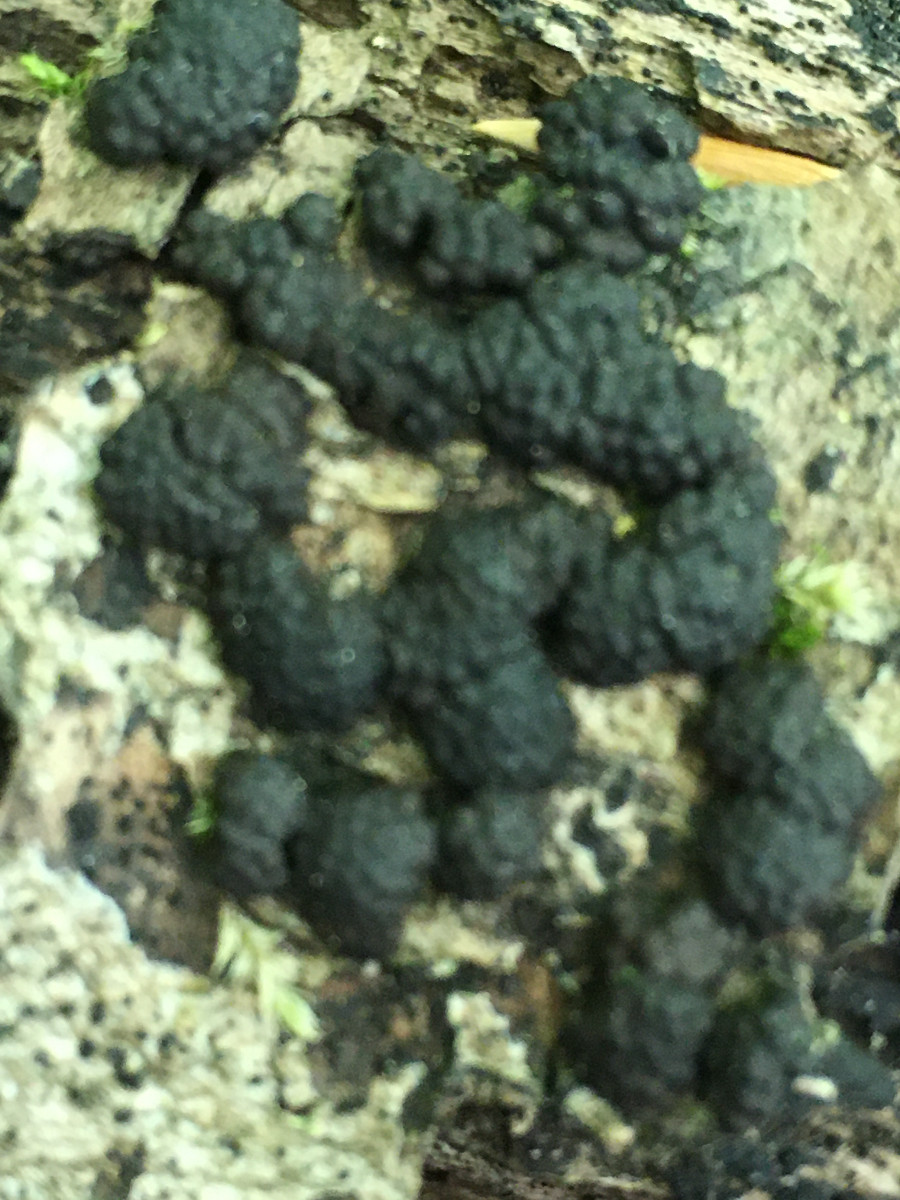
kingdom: Fungi
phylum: Ascomycota
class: Sordariomycetes
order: Xylariales
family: Hypoxylaceae
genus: Jackrogersella
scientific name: Jackrogersella cohaerens
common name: sammenflydende kulbær
